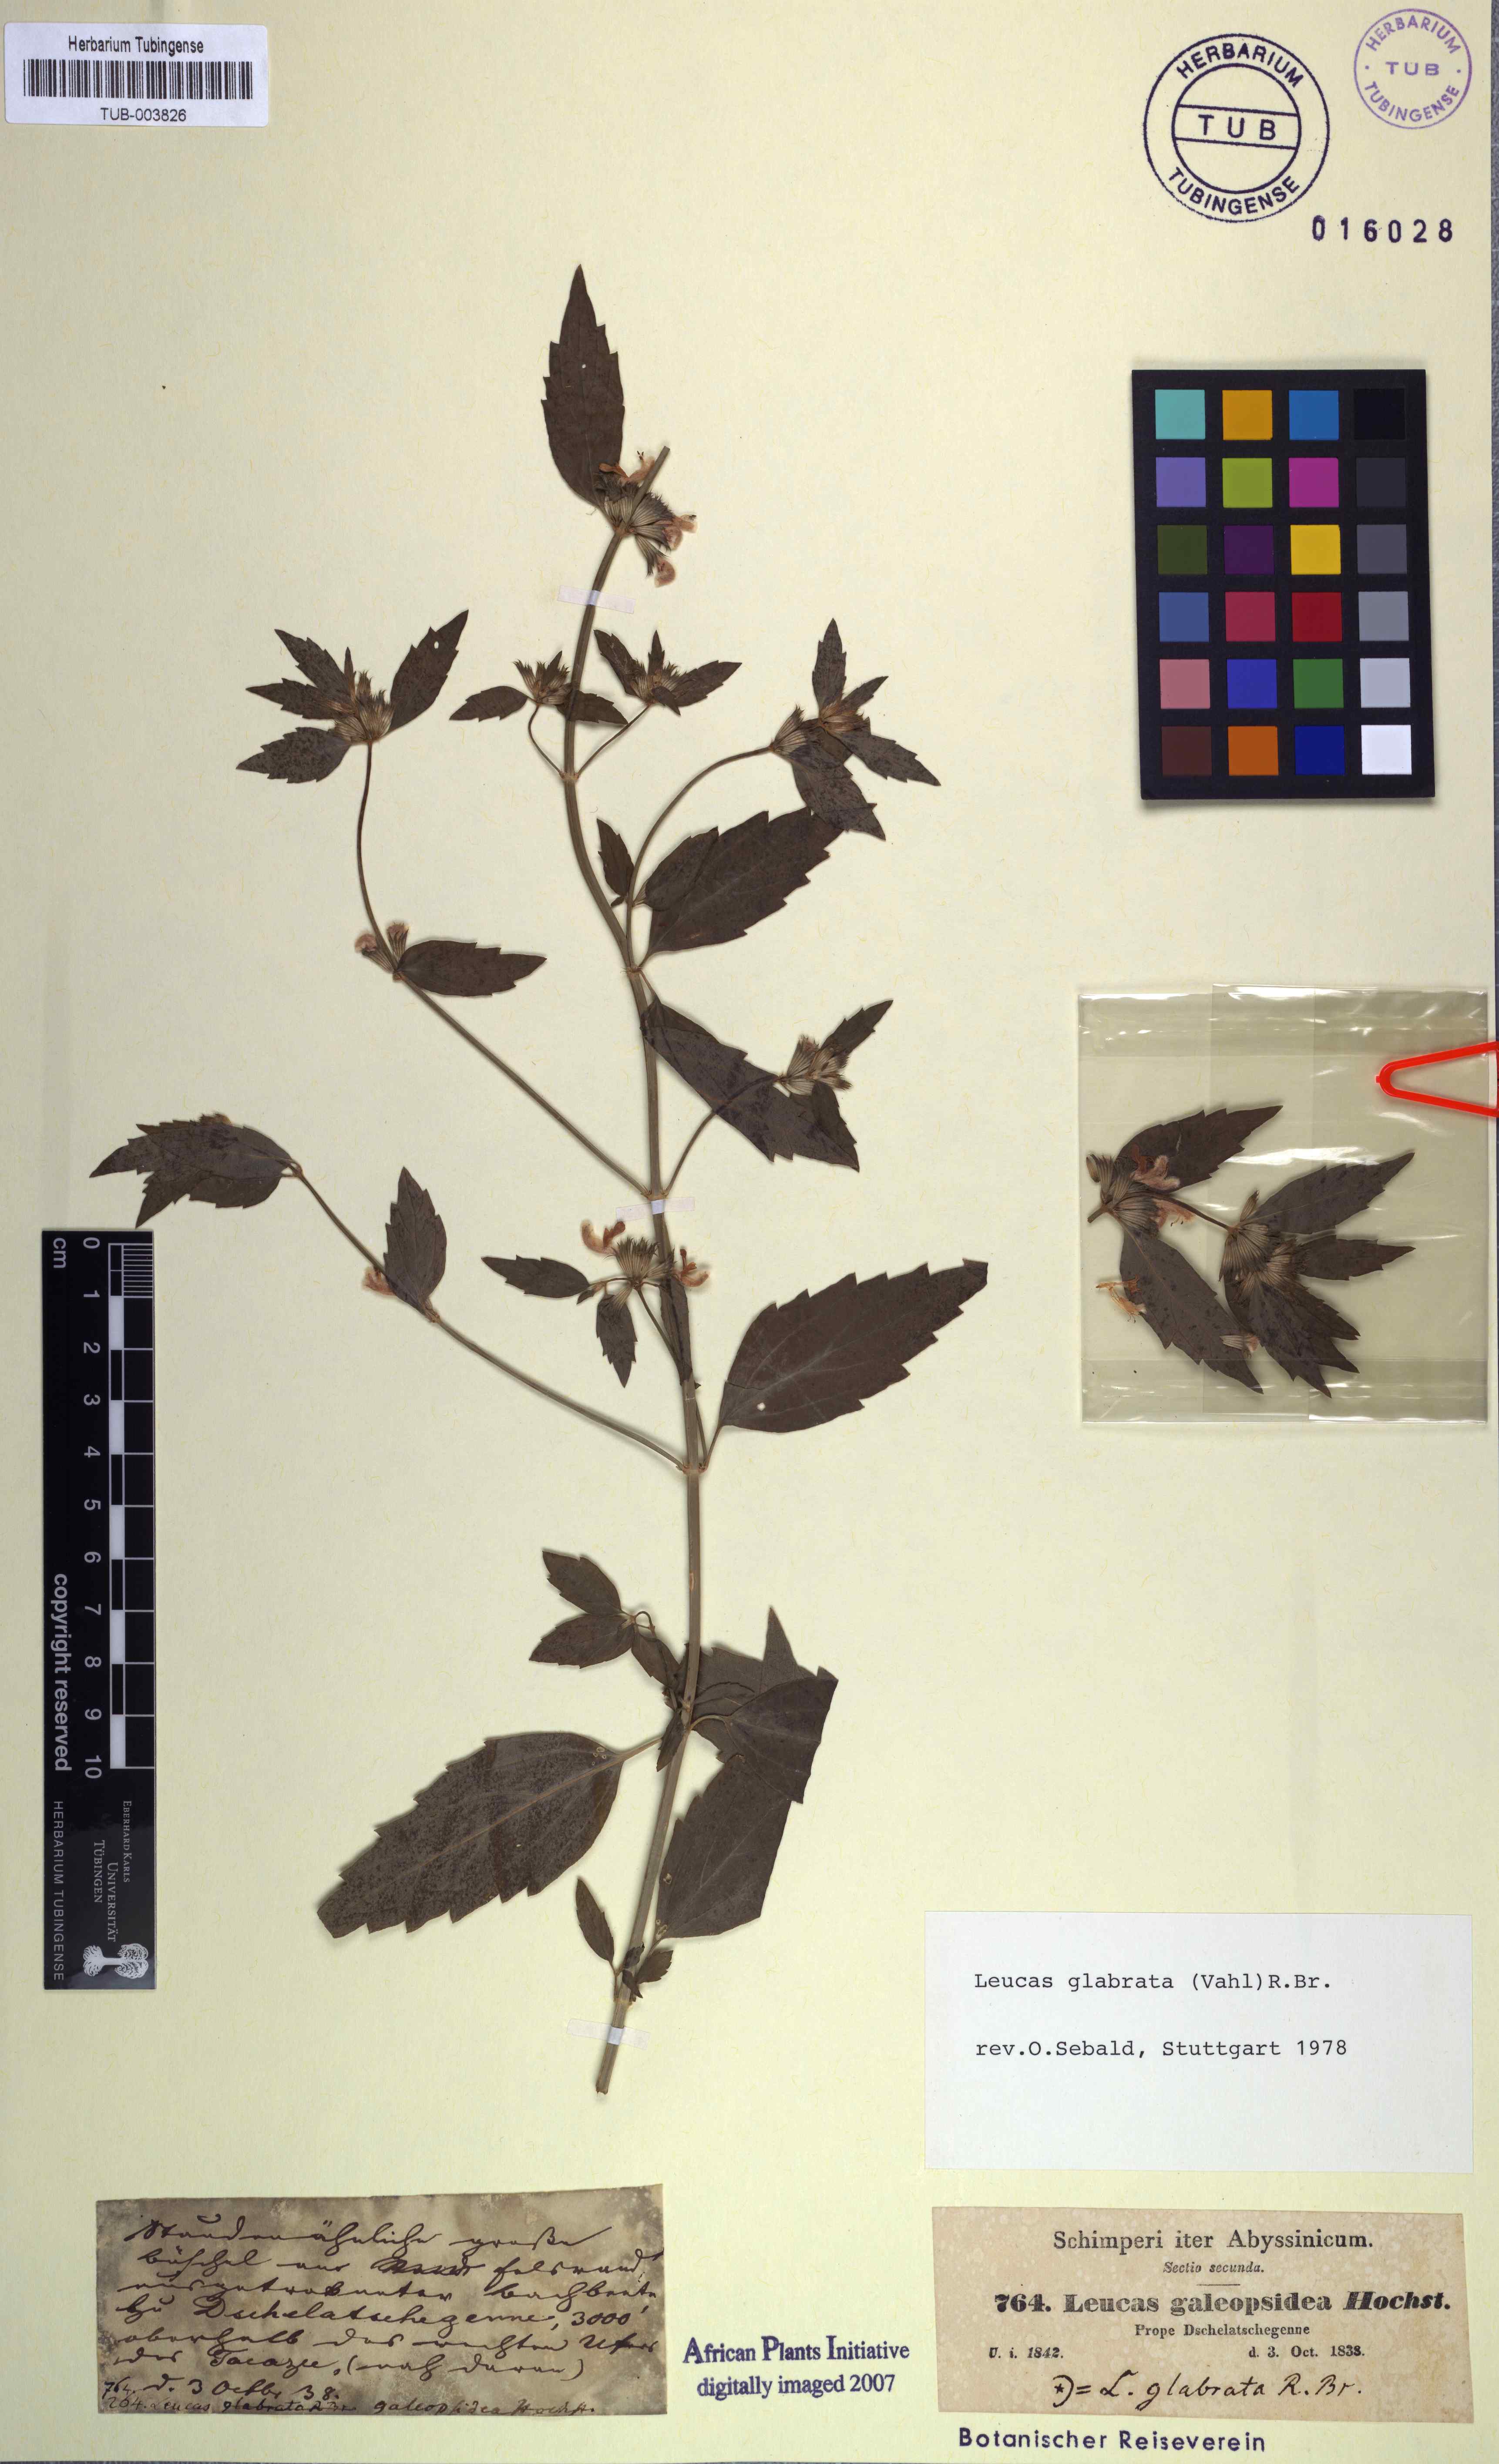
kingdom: Plantae
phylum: Tracheophyta
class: Magnoliopsida
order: Lamiales
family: Lamiaceae
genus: Leucas
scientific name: Leucas glabrata
